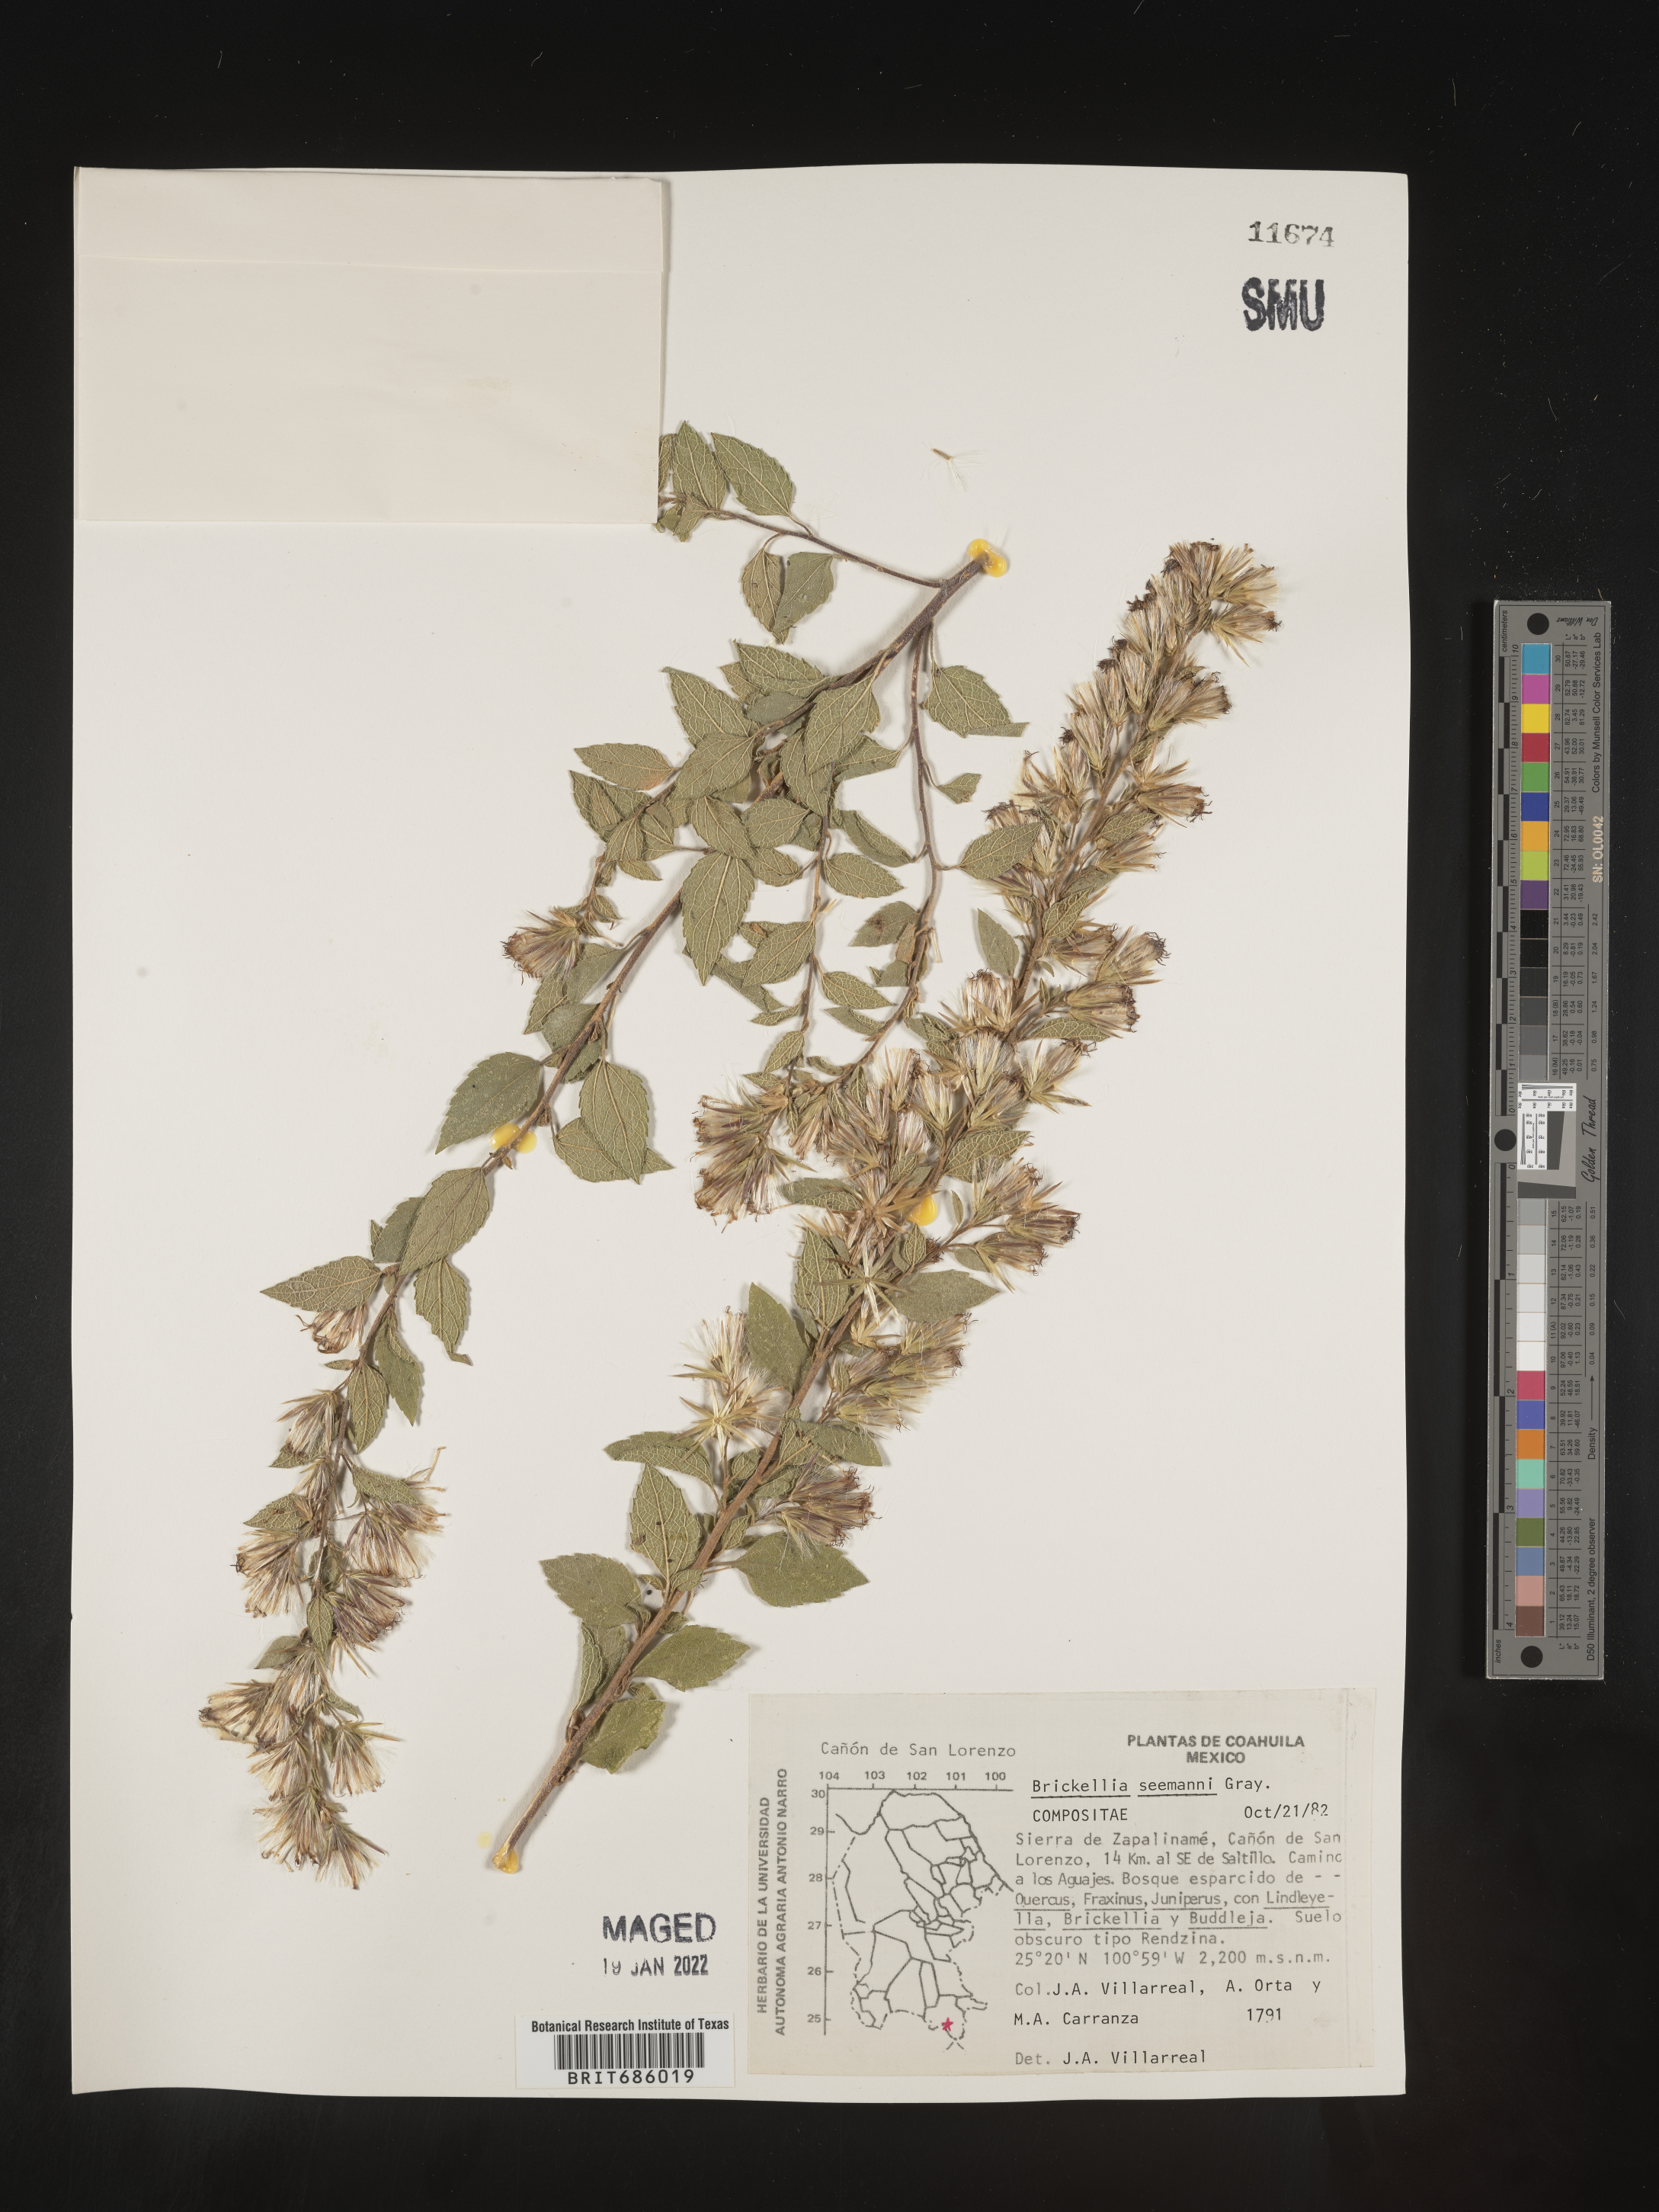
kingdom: Plantae
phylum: Tracheophyta
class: Magnoliopsida
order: Asterales
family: Asteraceae
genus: Brickellia
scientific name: Brickellia
